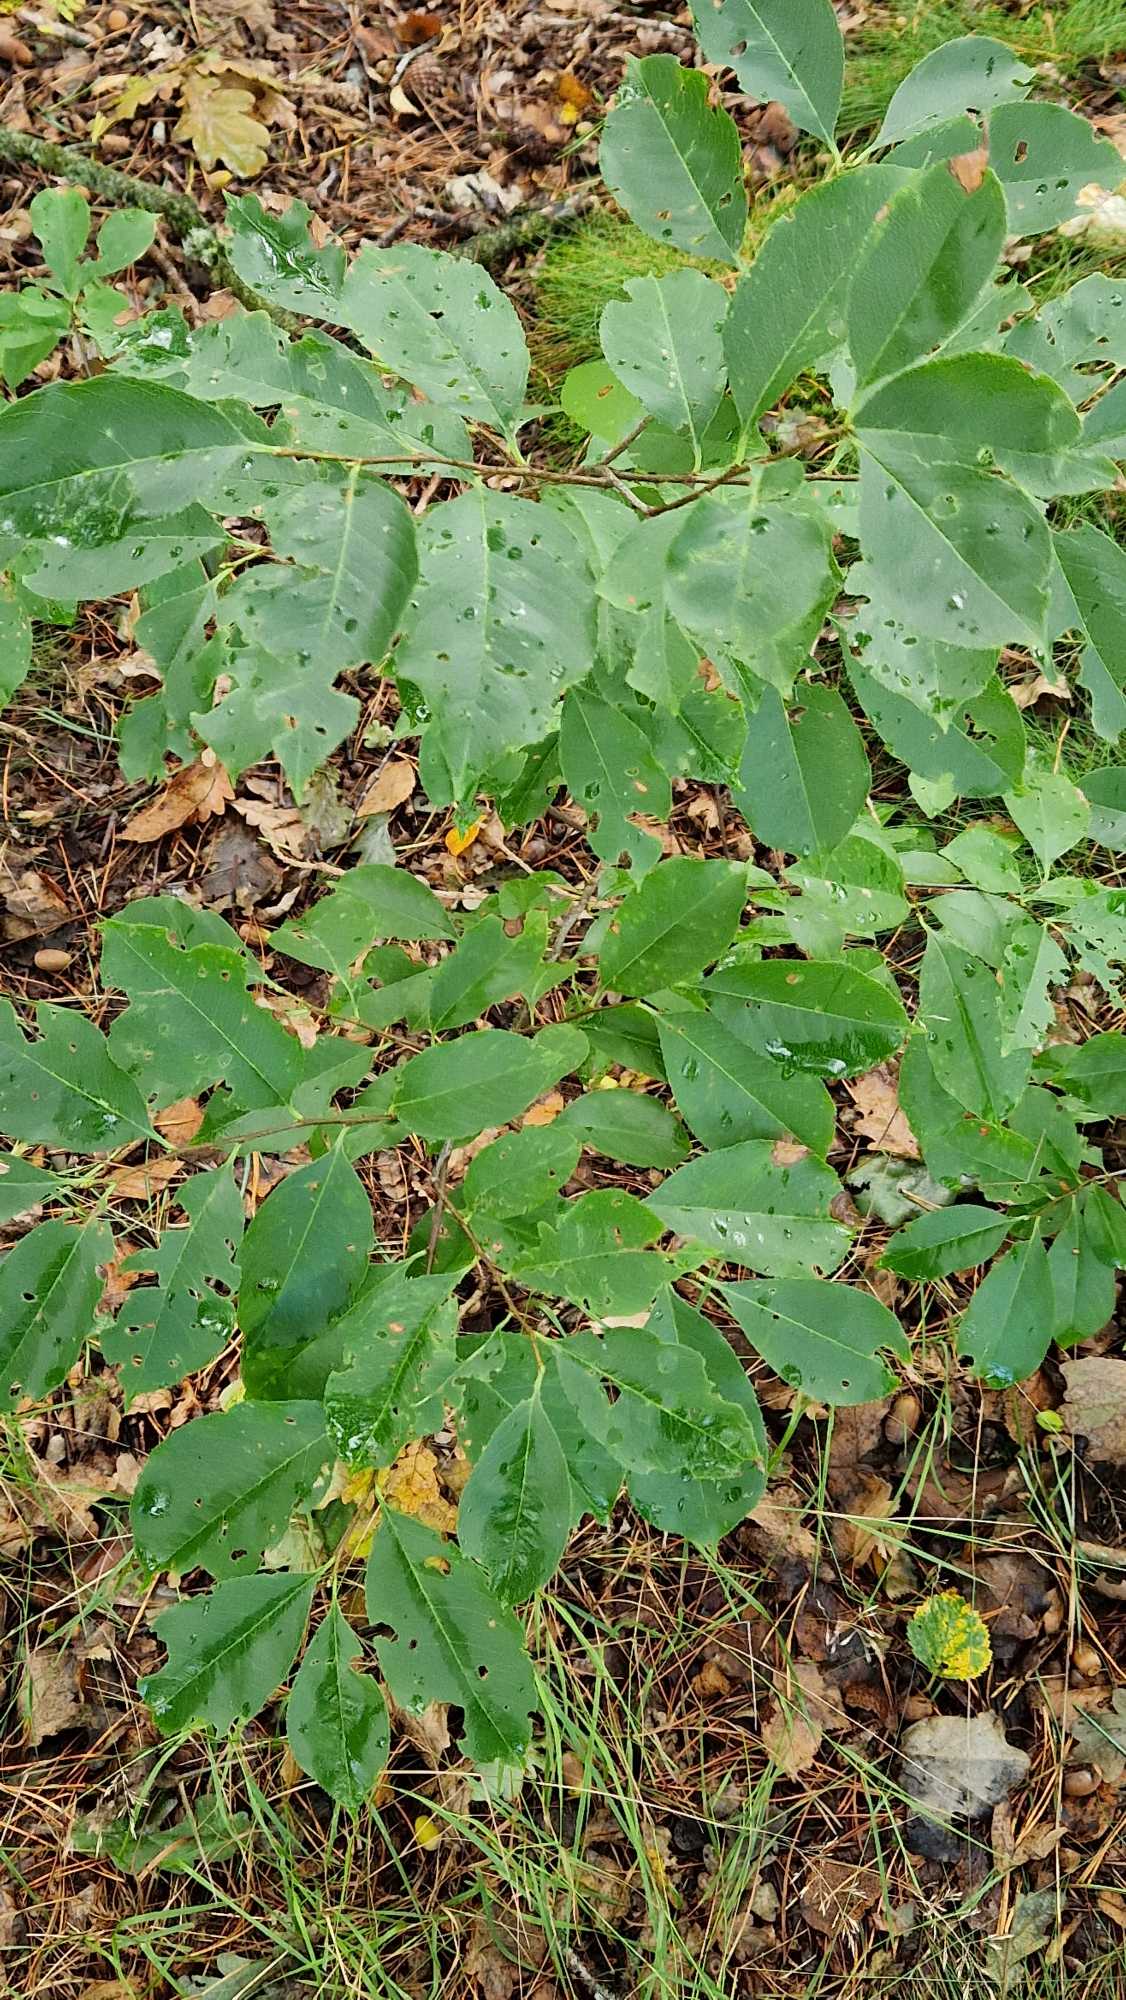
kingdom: Plantae
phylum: Tracheophyta
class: Magnoliopsida
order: Rosales
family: Rosaceae
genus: Prunus
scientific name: Prunus serotina
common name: Glansbladet hæg
